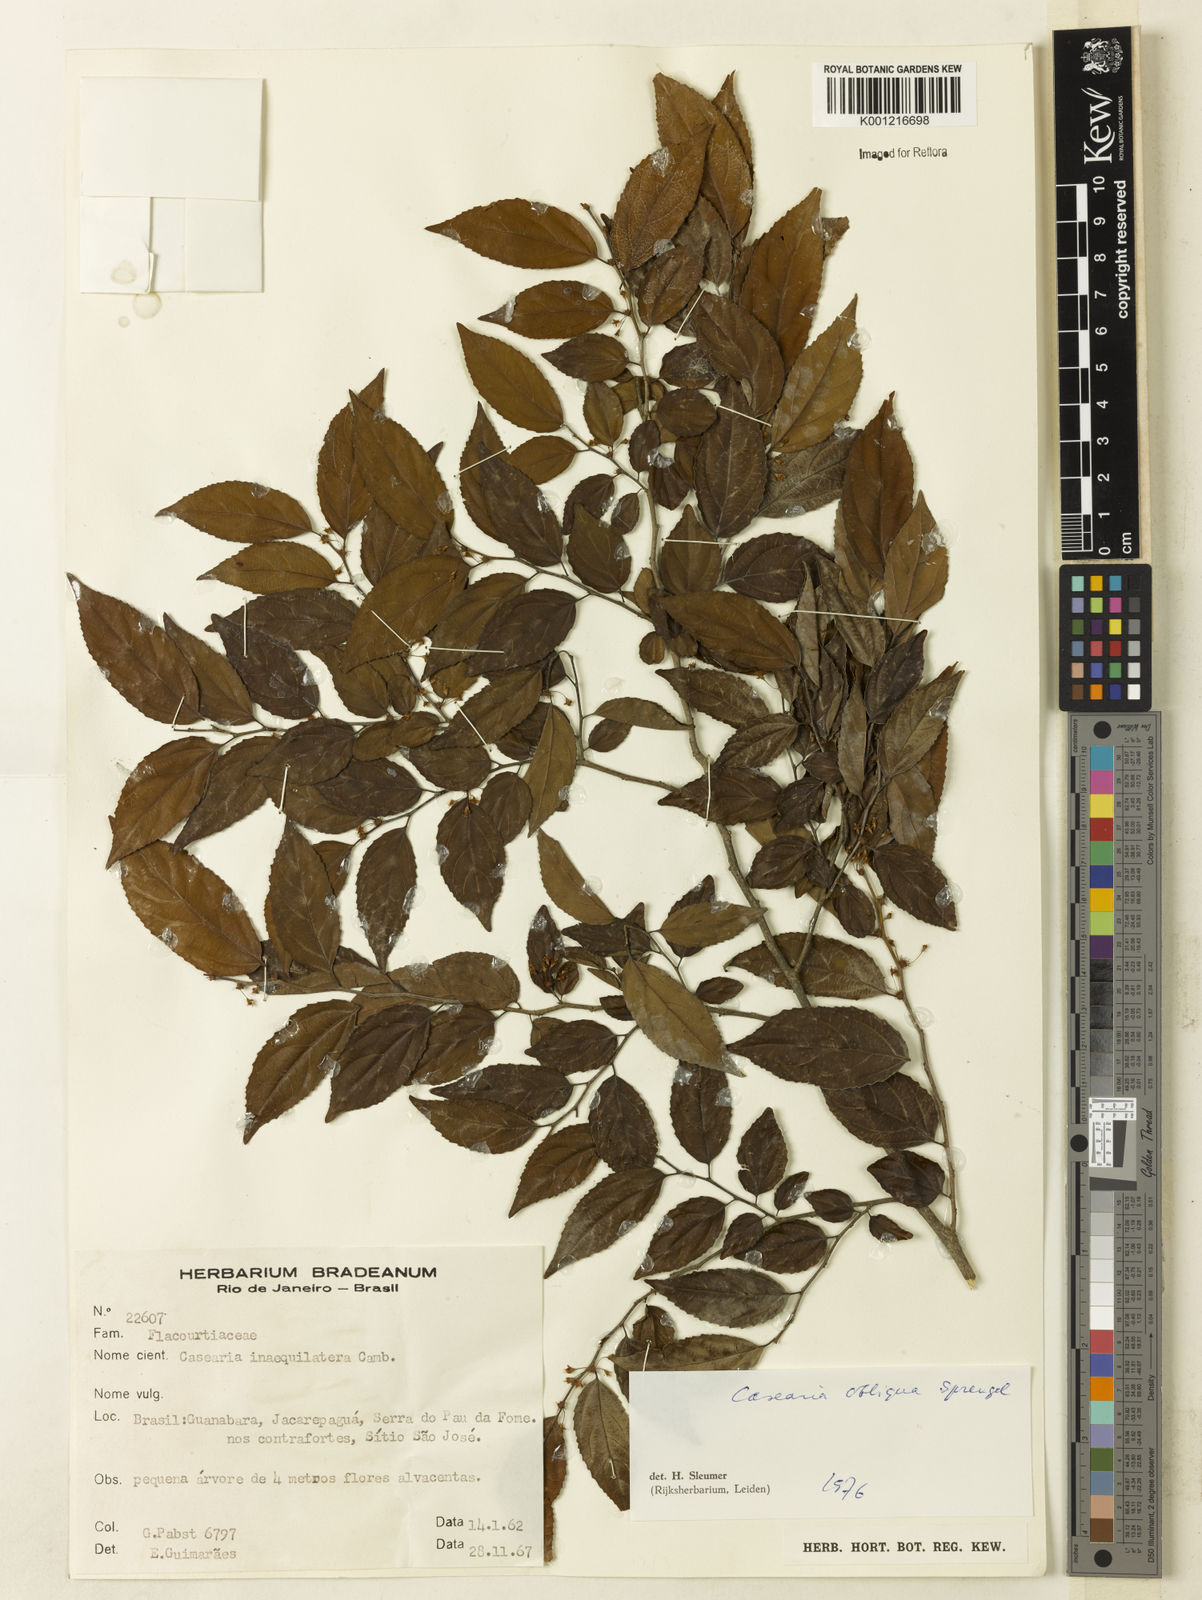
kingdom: Plantae
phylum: Tracheophyta
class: Magnoliopsida
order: Malpighiales
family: Salicaceae
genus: Casearia
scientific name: Casearia obliqua
